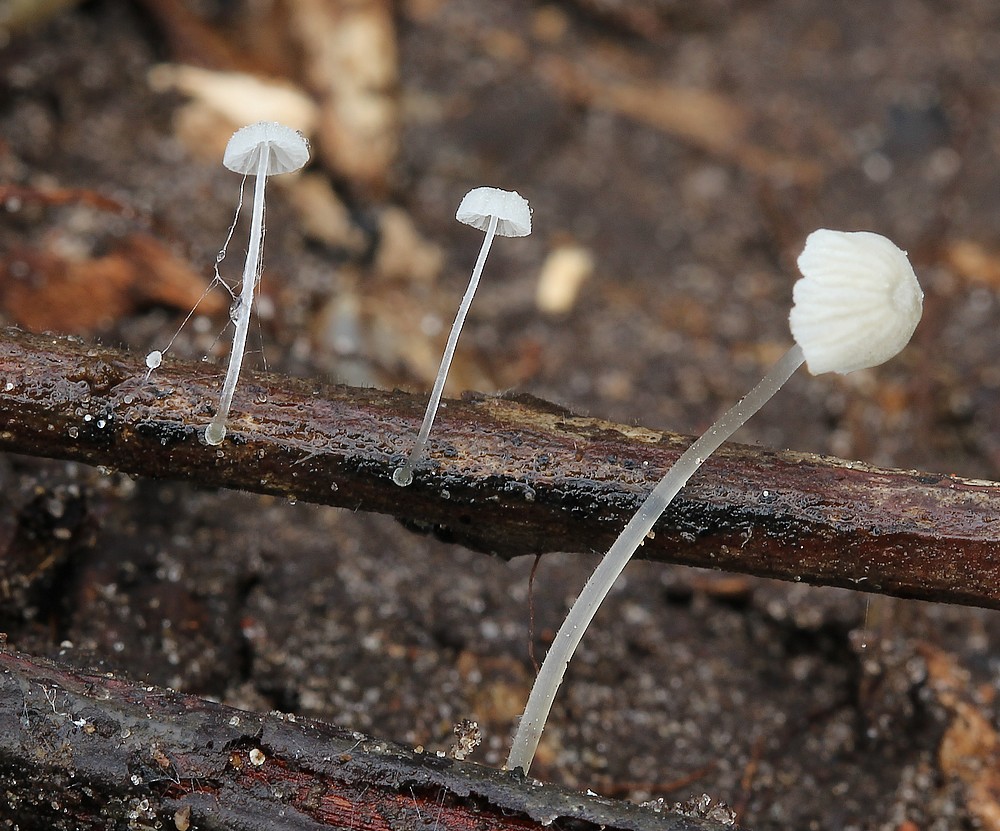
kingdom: Fungi
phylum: Basidiomycota
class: Agaricomycetes
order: Agaricales
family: Mycenaceae
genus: Mycena
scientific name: Mycena tenerrima
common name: pudret huesvamp
